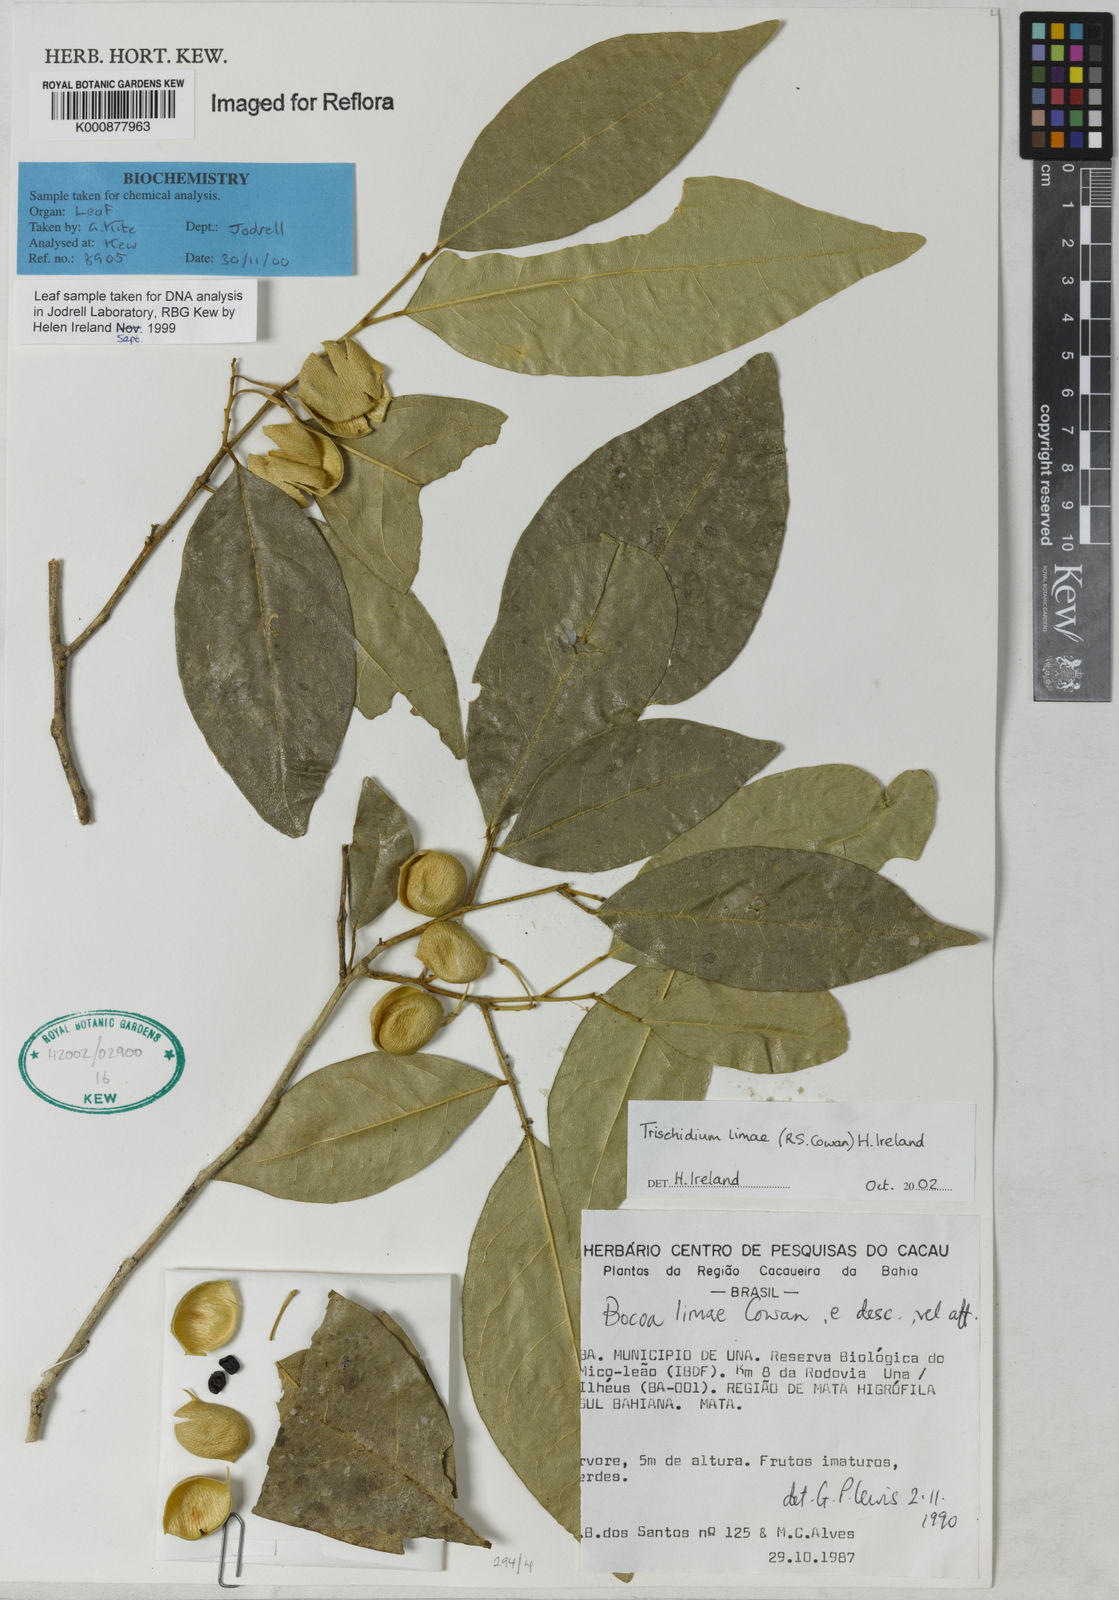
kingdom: Plantae
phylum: Tracheophyta
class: Magnoliopsida
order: Fabales
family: Fabaceae
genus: Trischidium
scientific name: Trischidium limae
